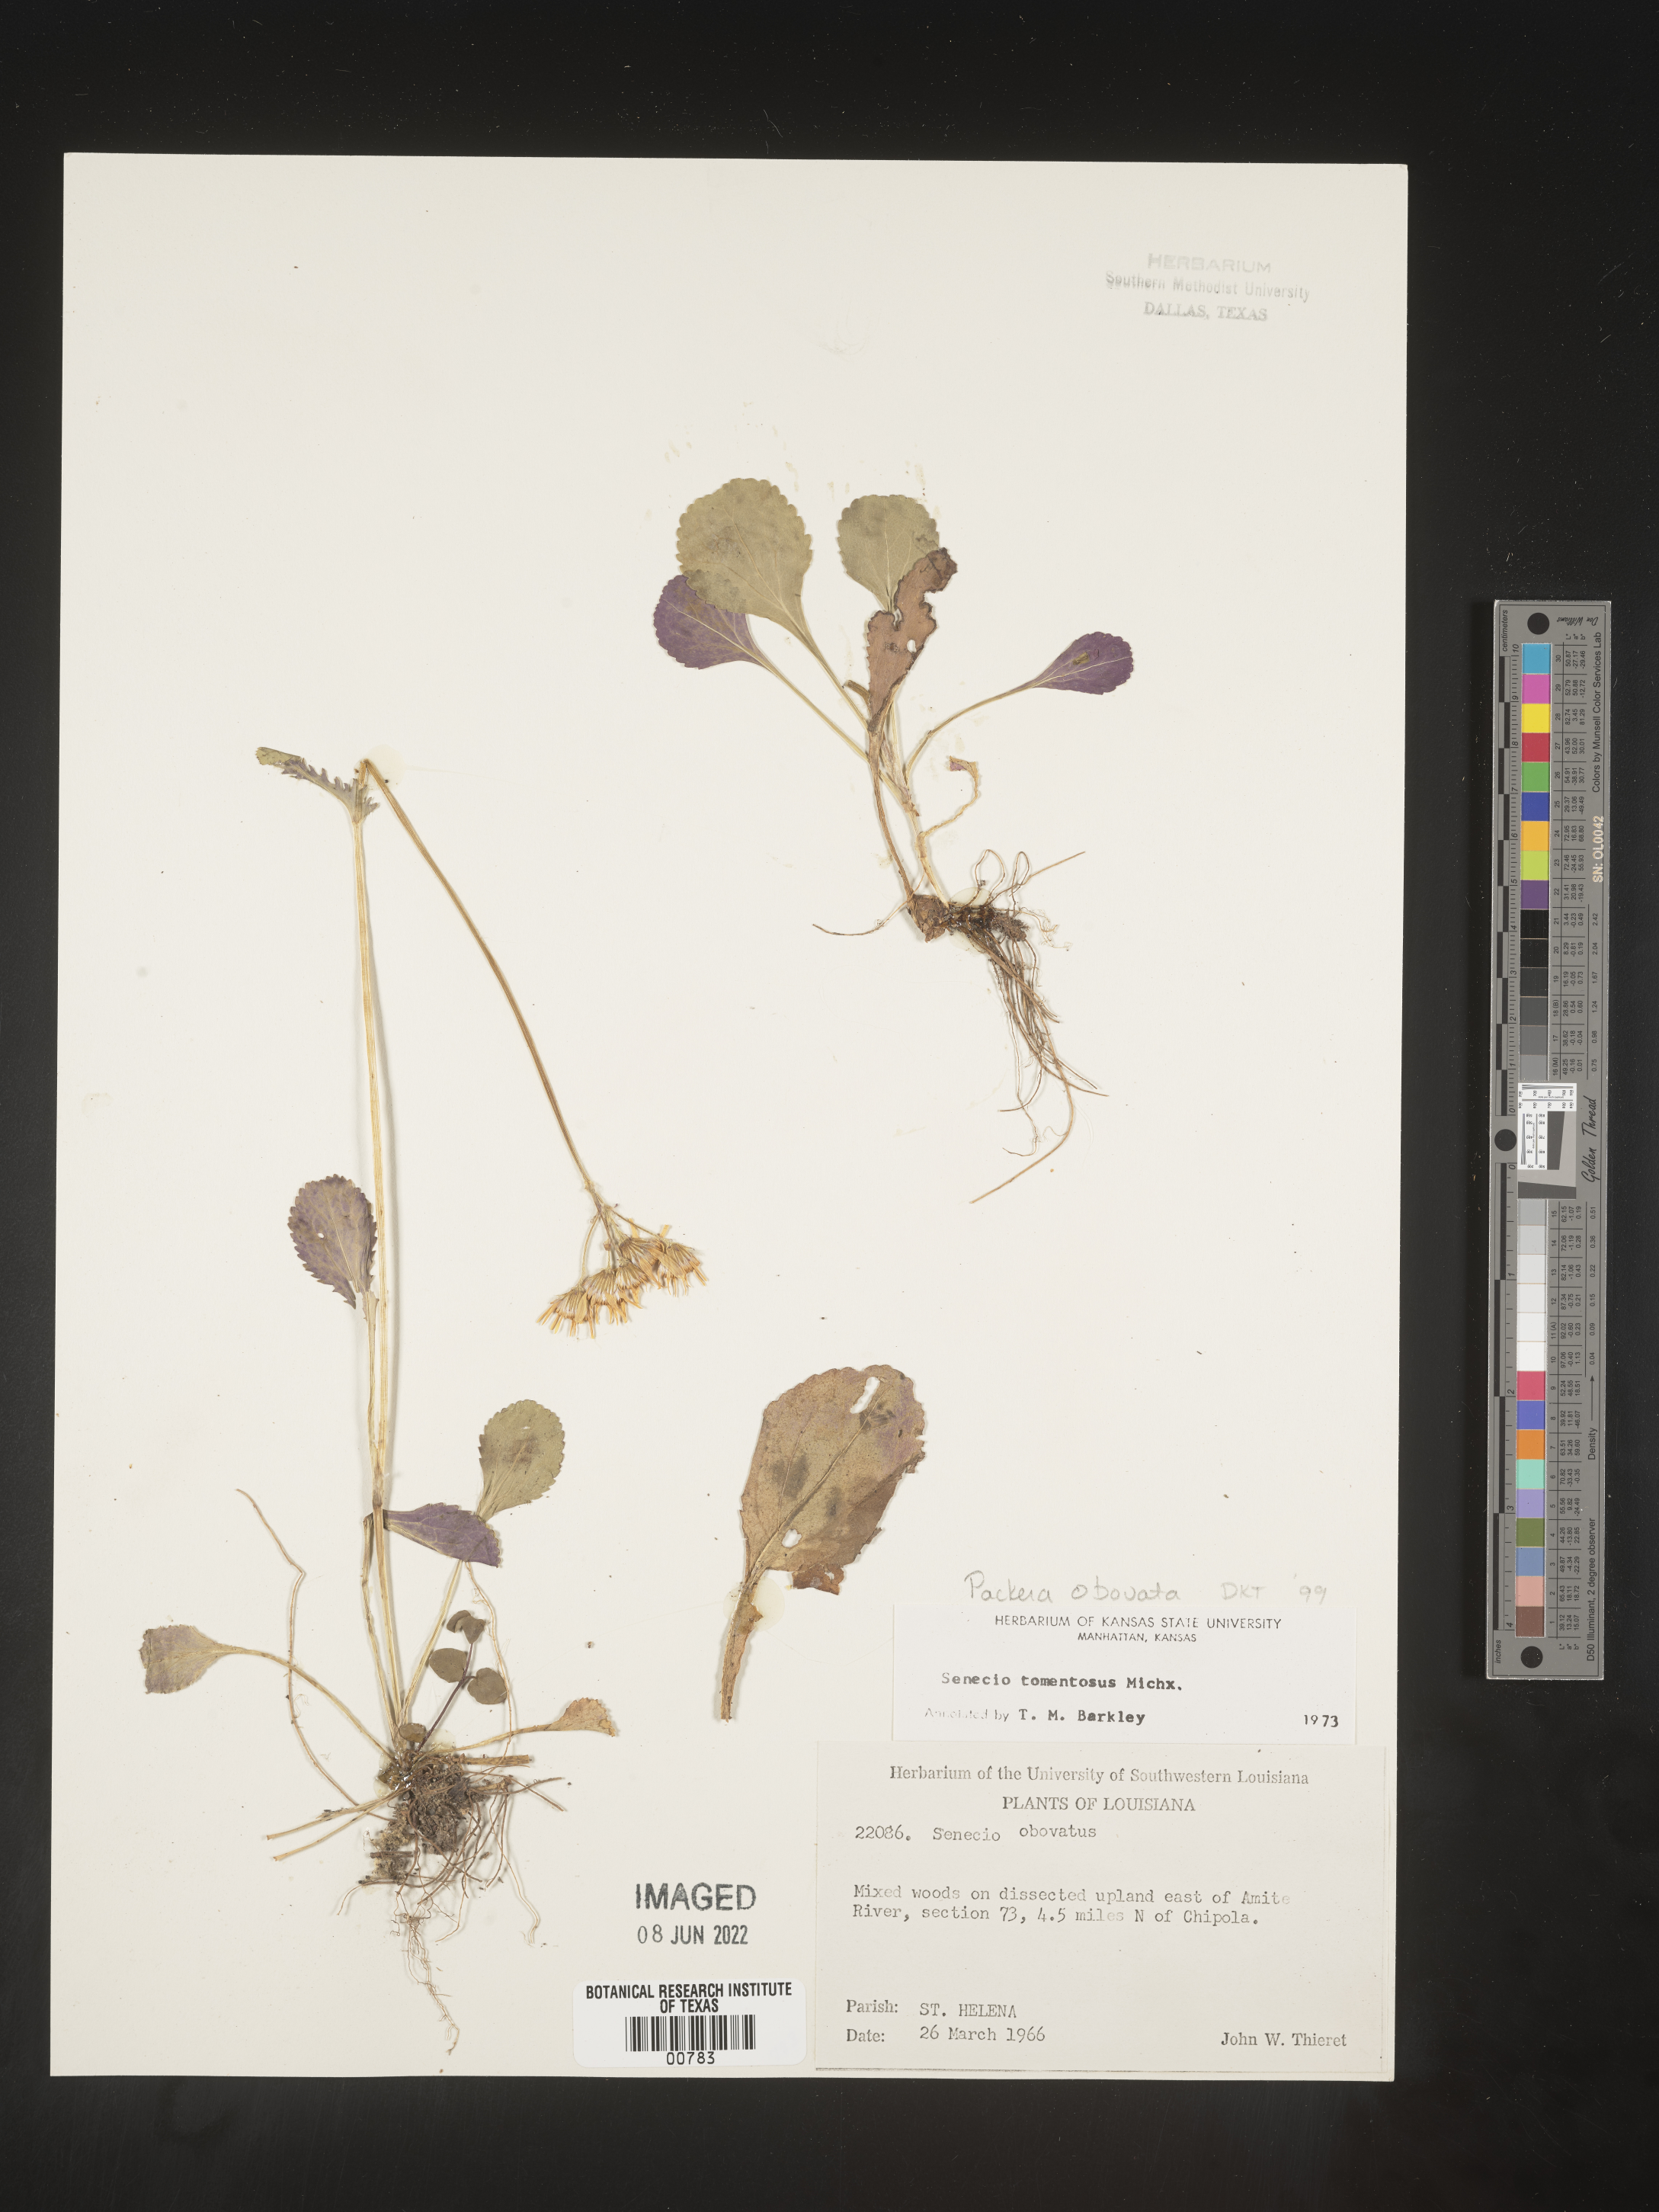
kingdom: Plantae
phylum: Tracheophyta
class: Magnoliopsida
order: Asterales
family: Asteraceae
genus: Packera
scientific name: Packera obovata
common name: Round-leaf ragwort
